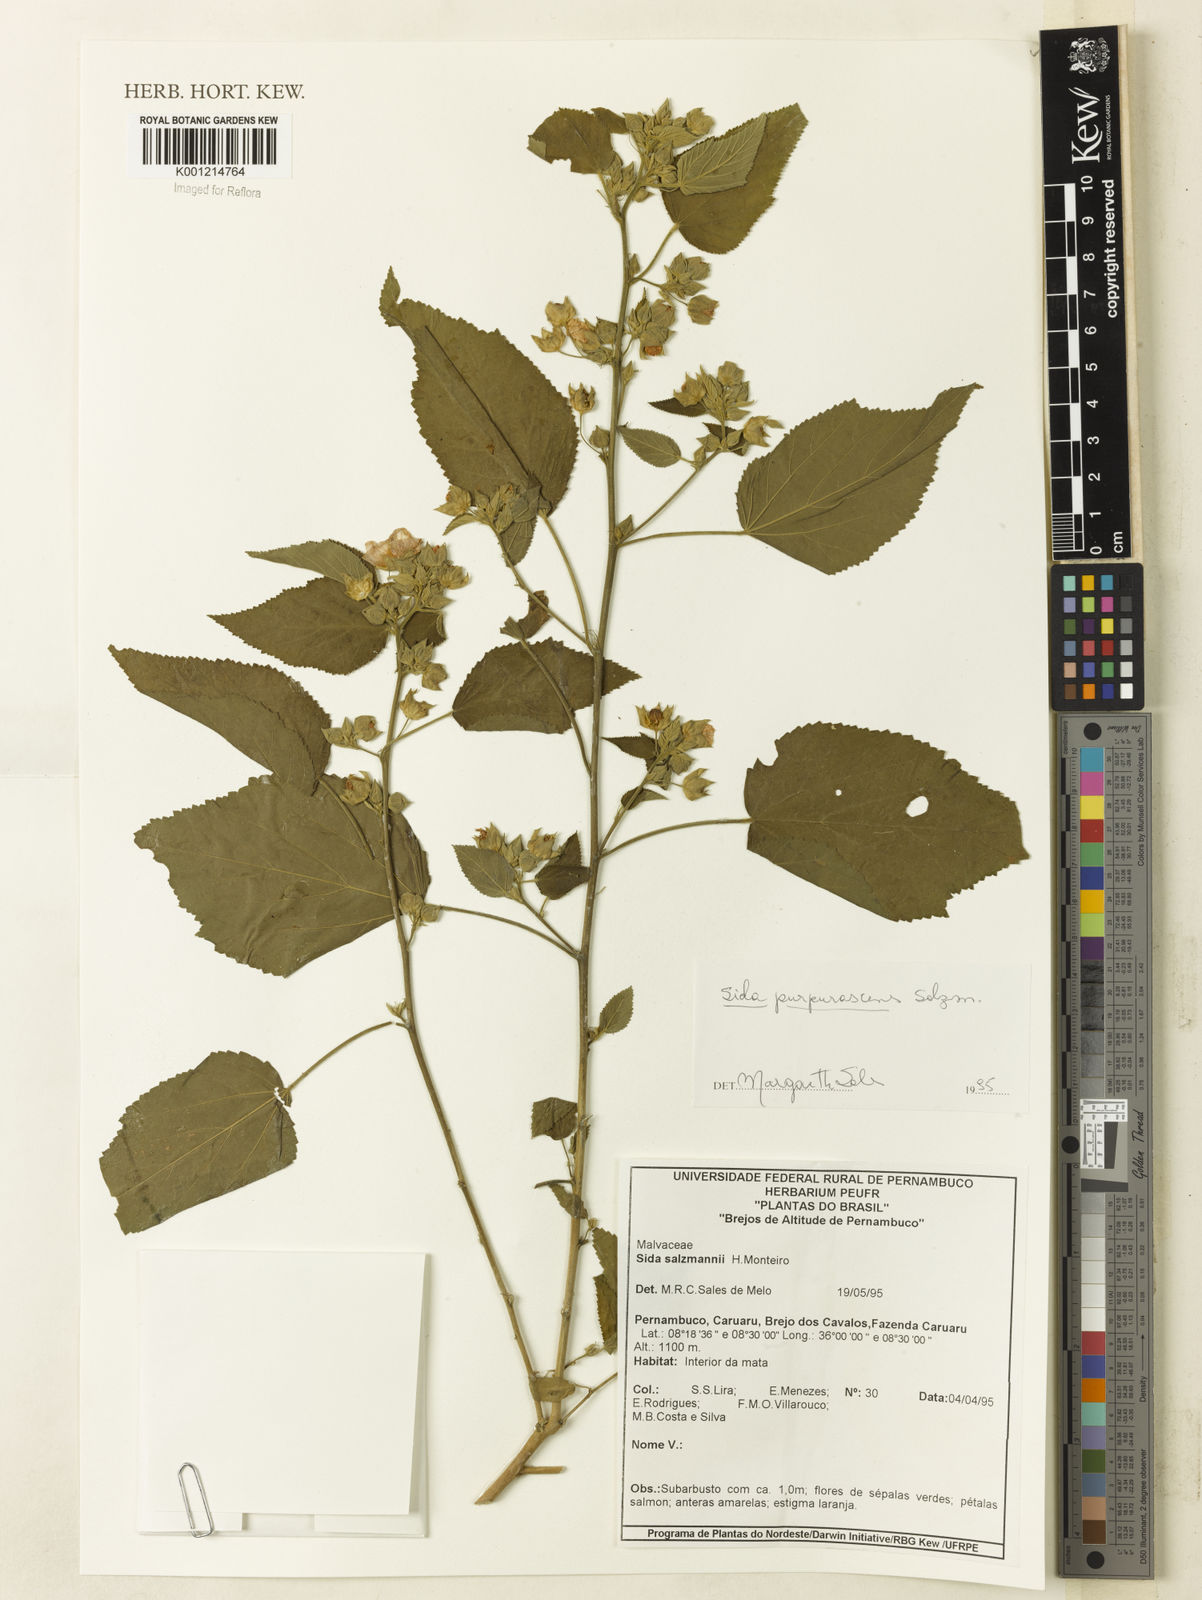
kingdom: Plantae
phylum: Tracheophyta
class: Magnoliopsida
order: Malvales
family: Malvaceae
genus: Sida
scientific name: Sida ulei
